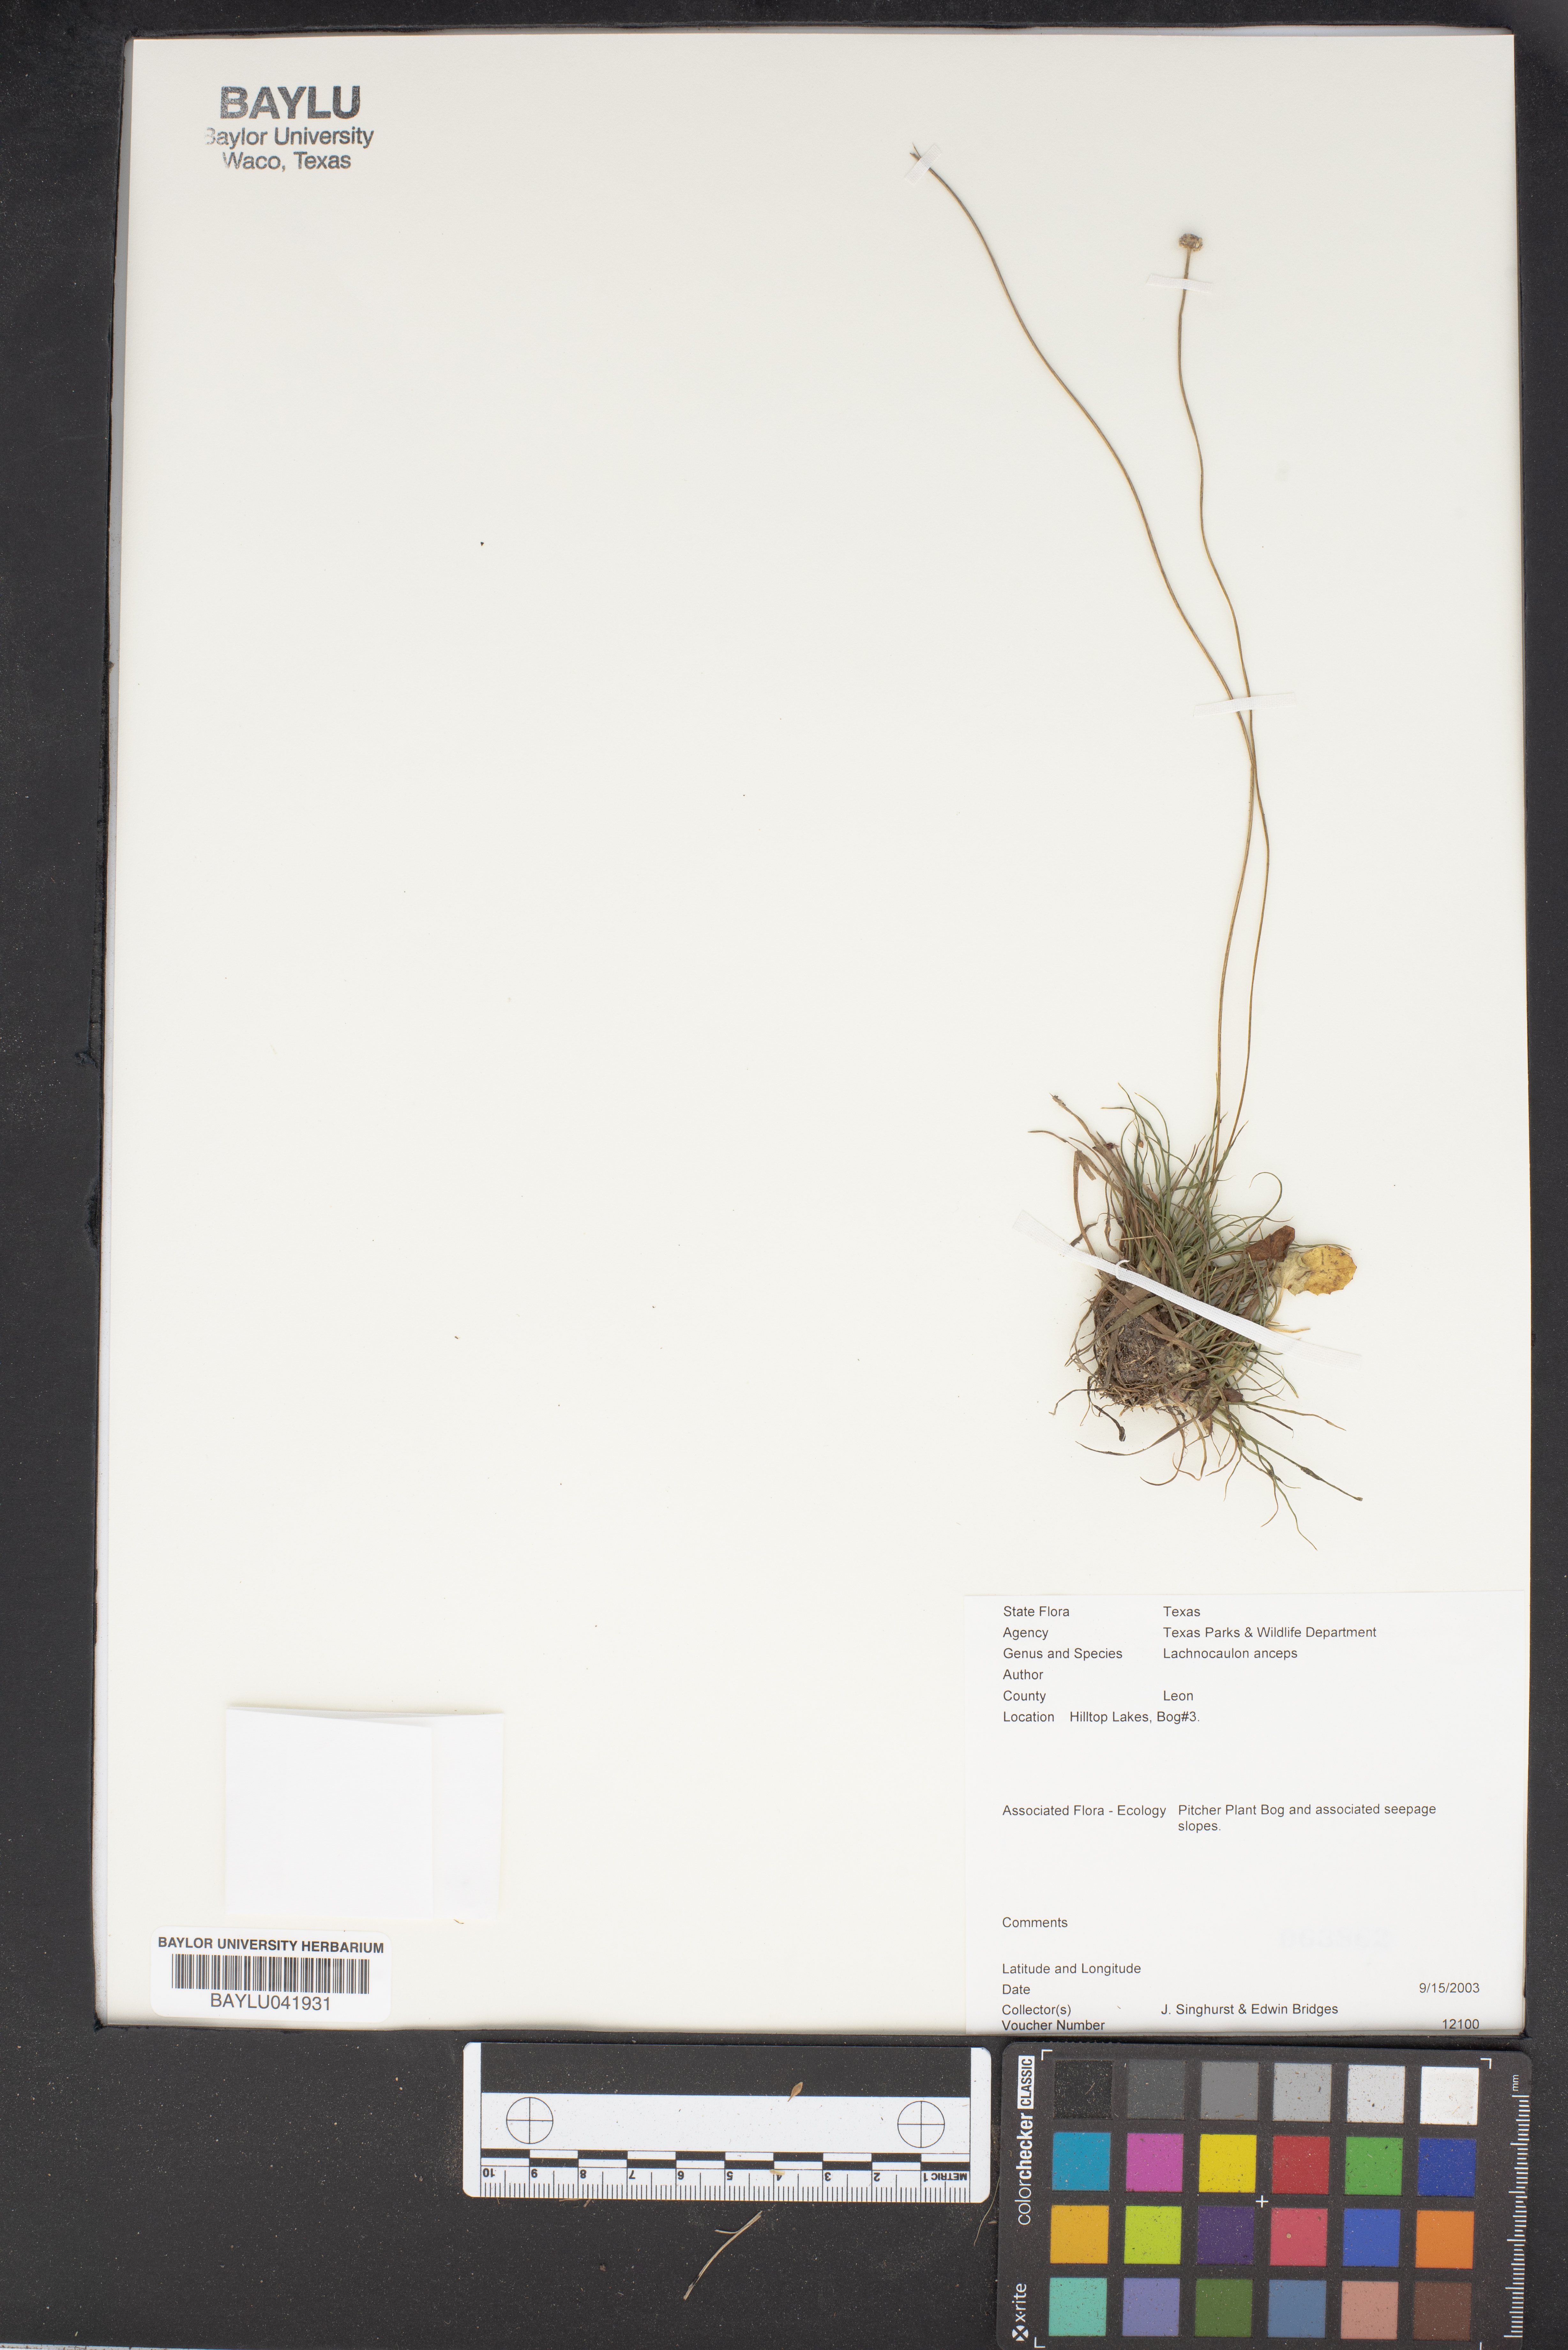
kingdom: Plantae
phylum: Tracheophyta
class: Liliopsida
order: Poales
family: Eriocaulaceae
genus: Paepalanthus
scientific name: Paepalanthus anceps
